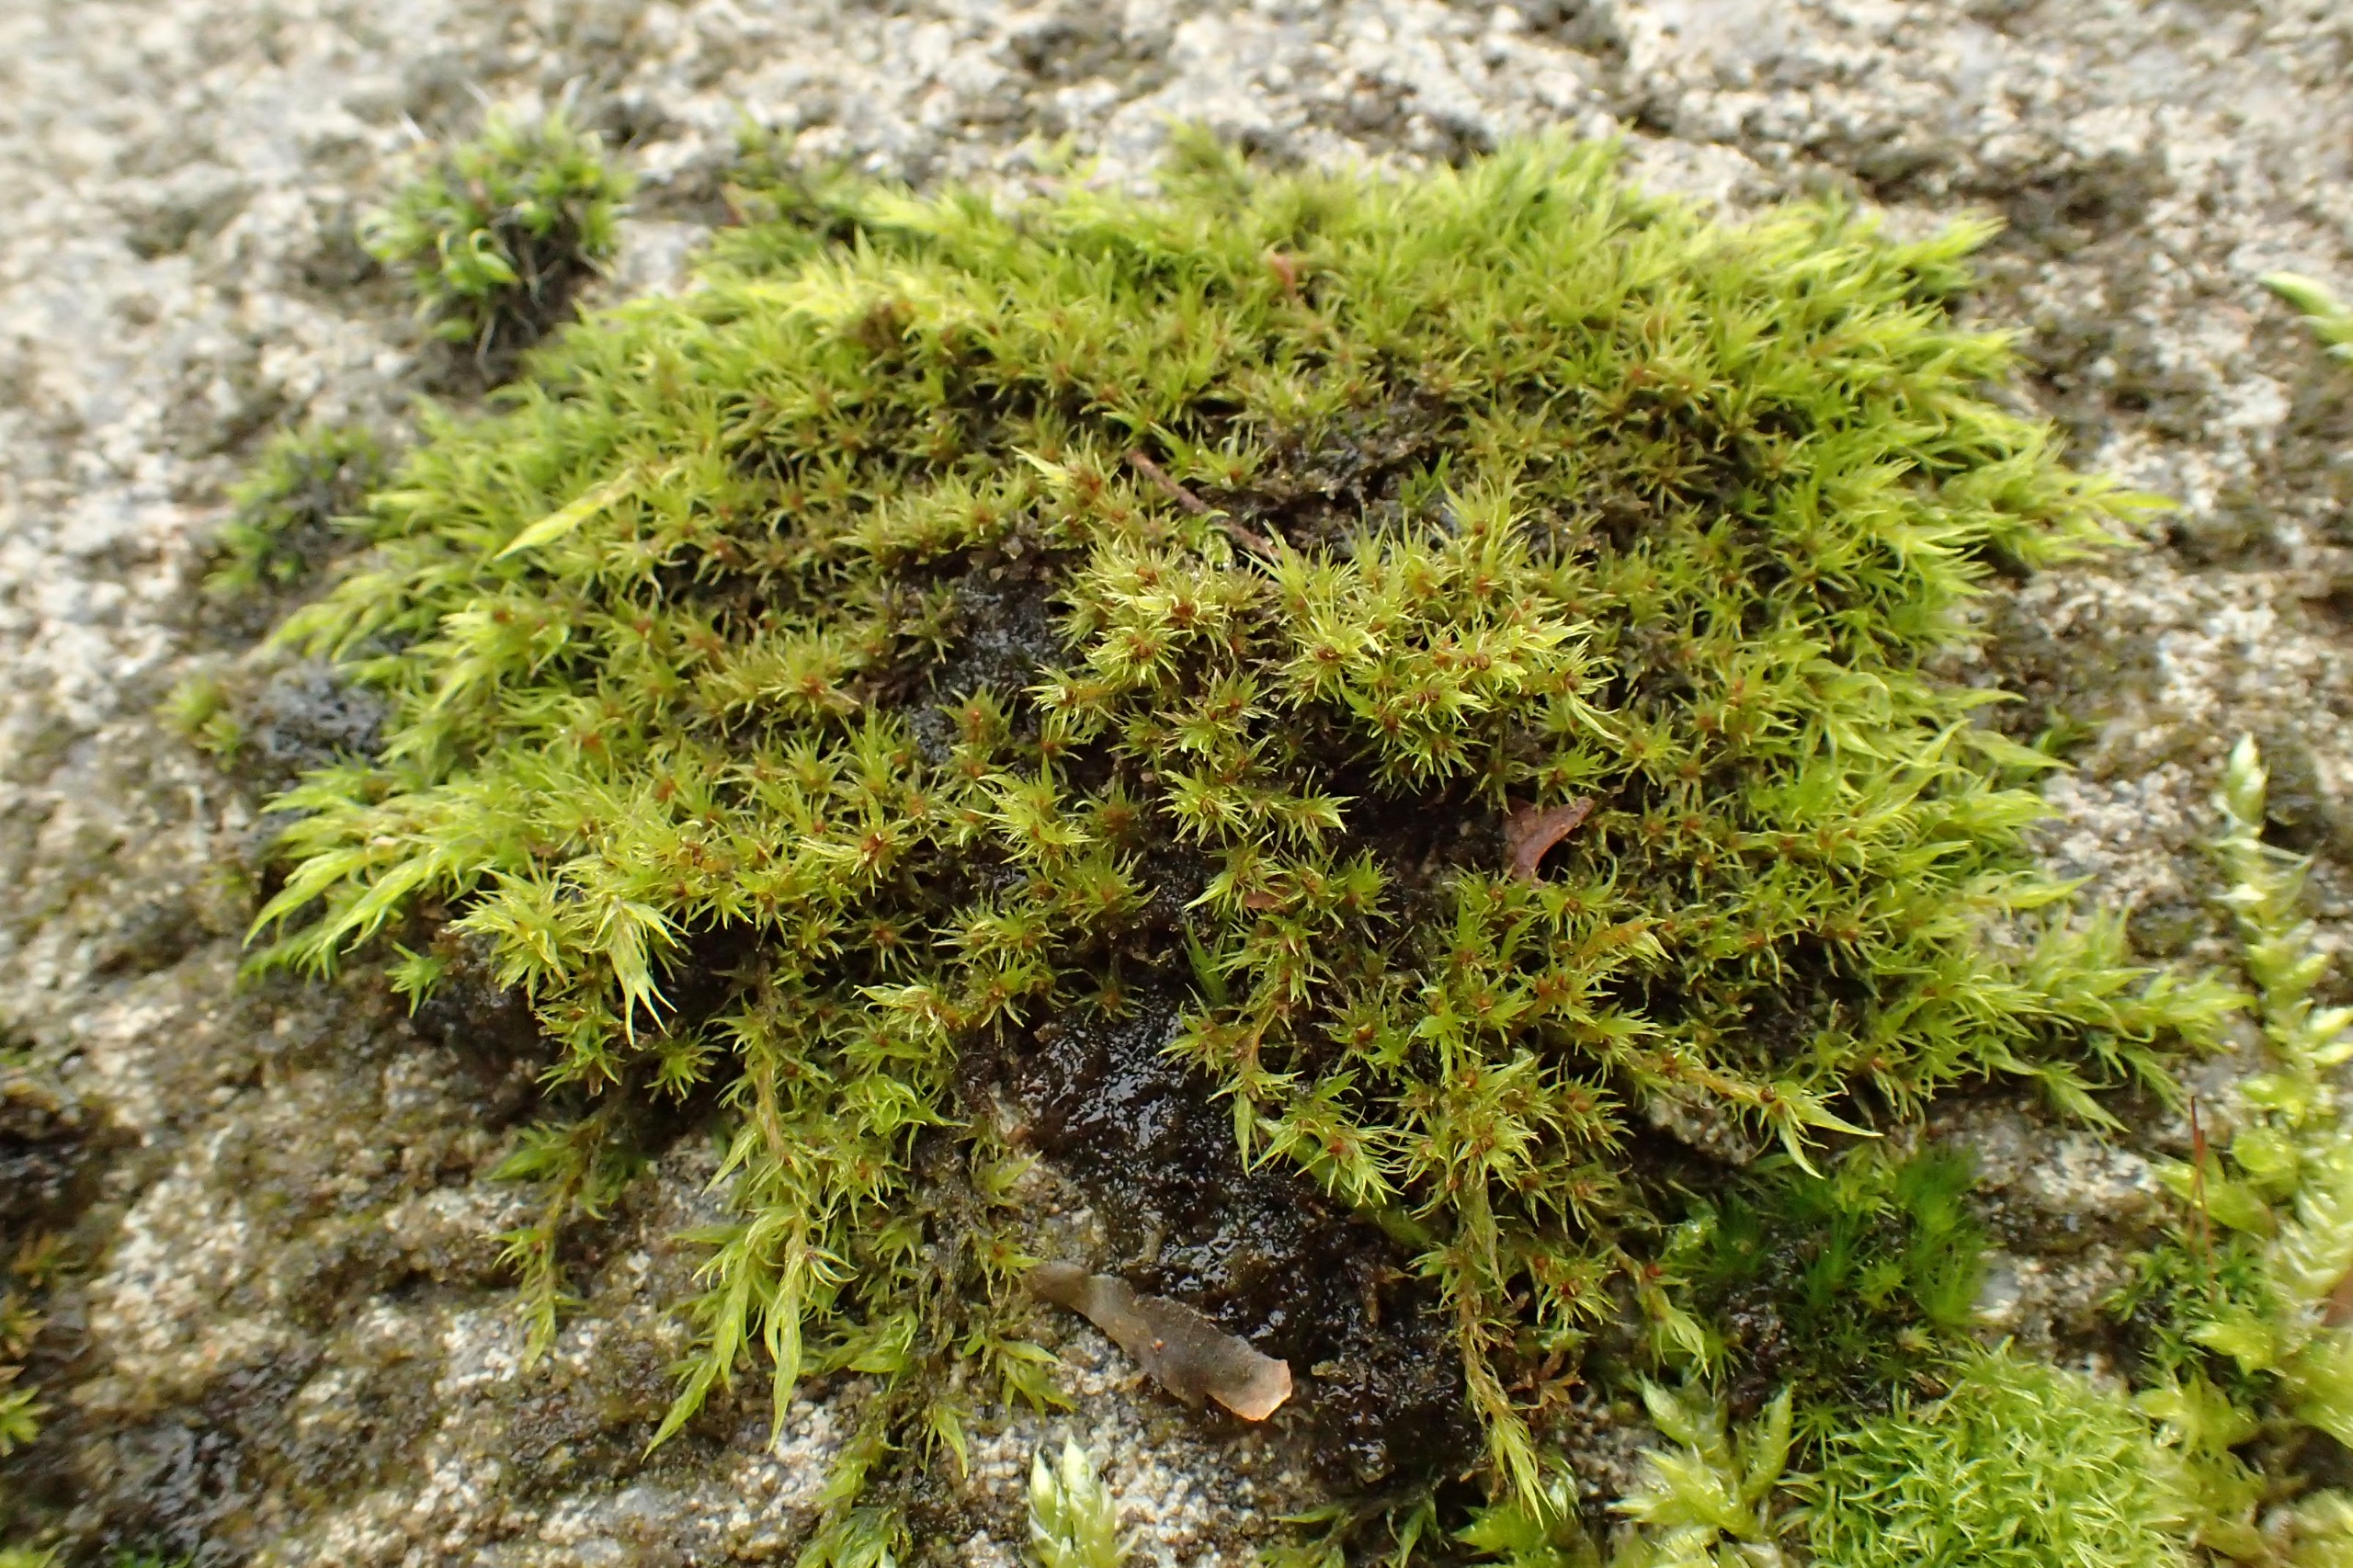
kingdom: Plantae
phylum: Bryophyta
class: Bryopsida
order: Grimmiales
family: Grimmiaceae
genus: Dilutineuron
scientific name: Dilutineuron fasciculare
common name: Knippe-børstemos
